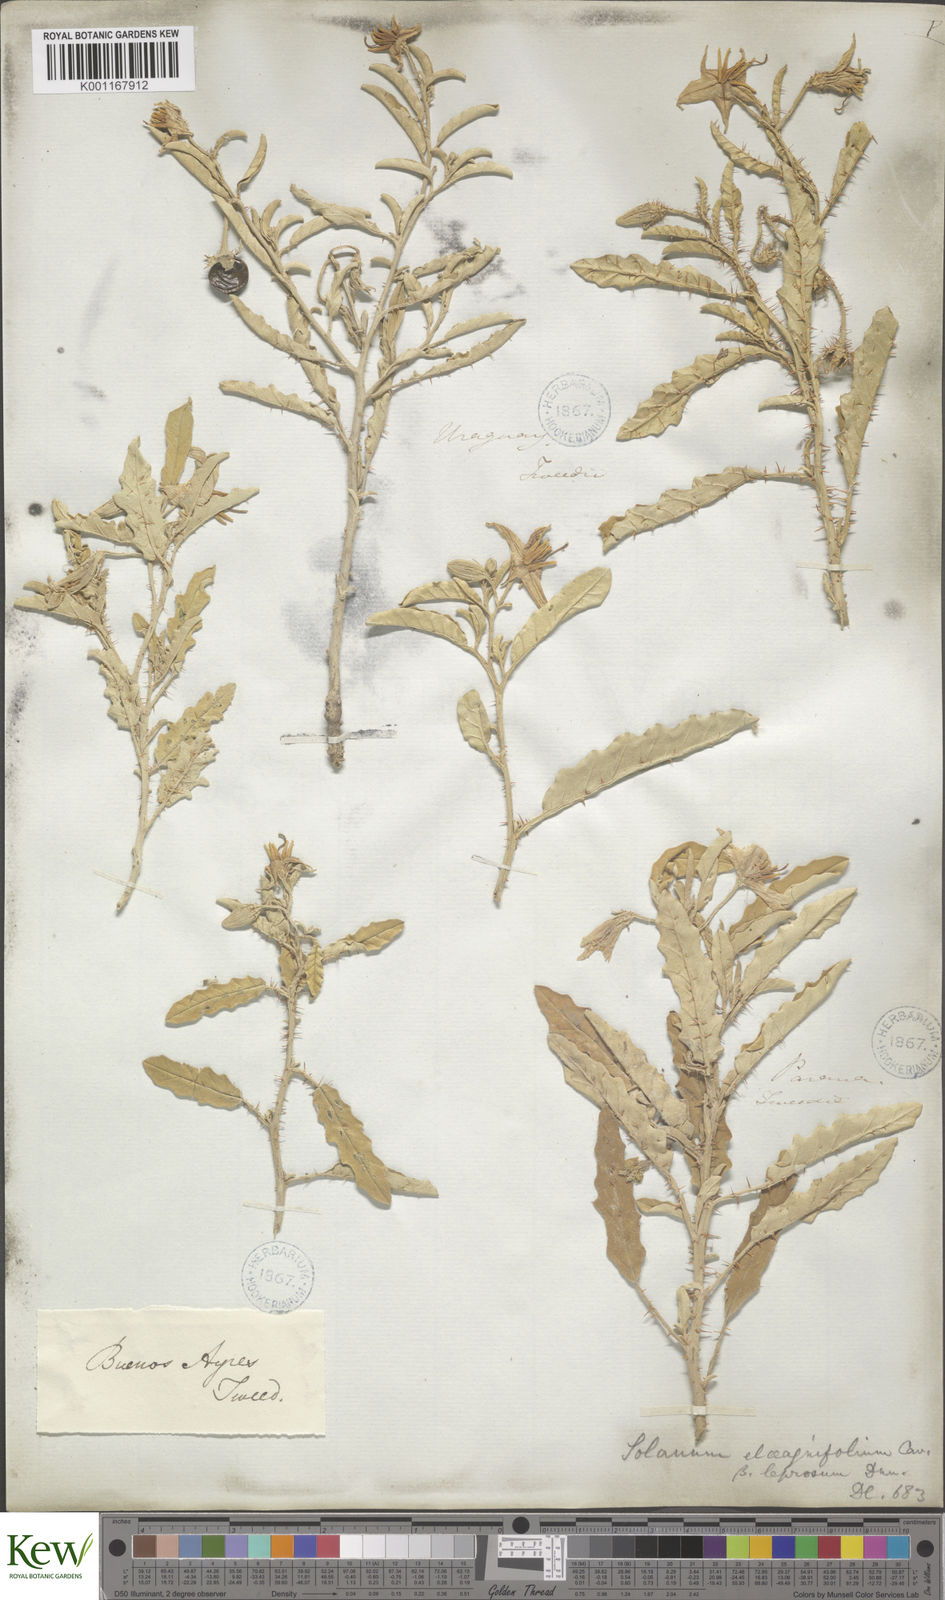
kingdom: Plantae
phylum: Tracheophyta
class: Magnoliopsida
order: Solanales
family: Solanaceae
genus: Solanum
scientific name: Solanum elaeagnifolium
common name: Silverleaf nightshade
